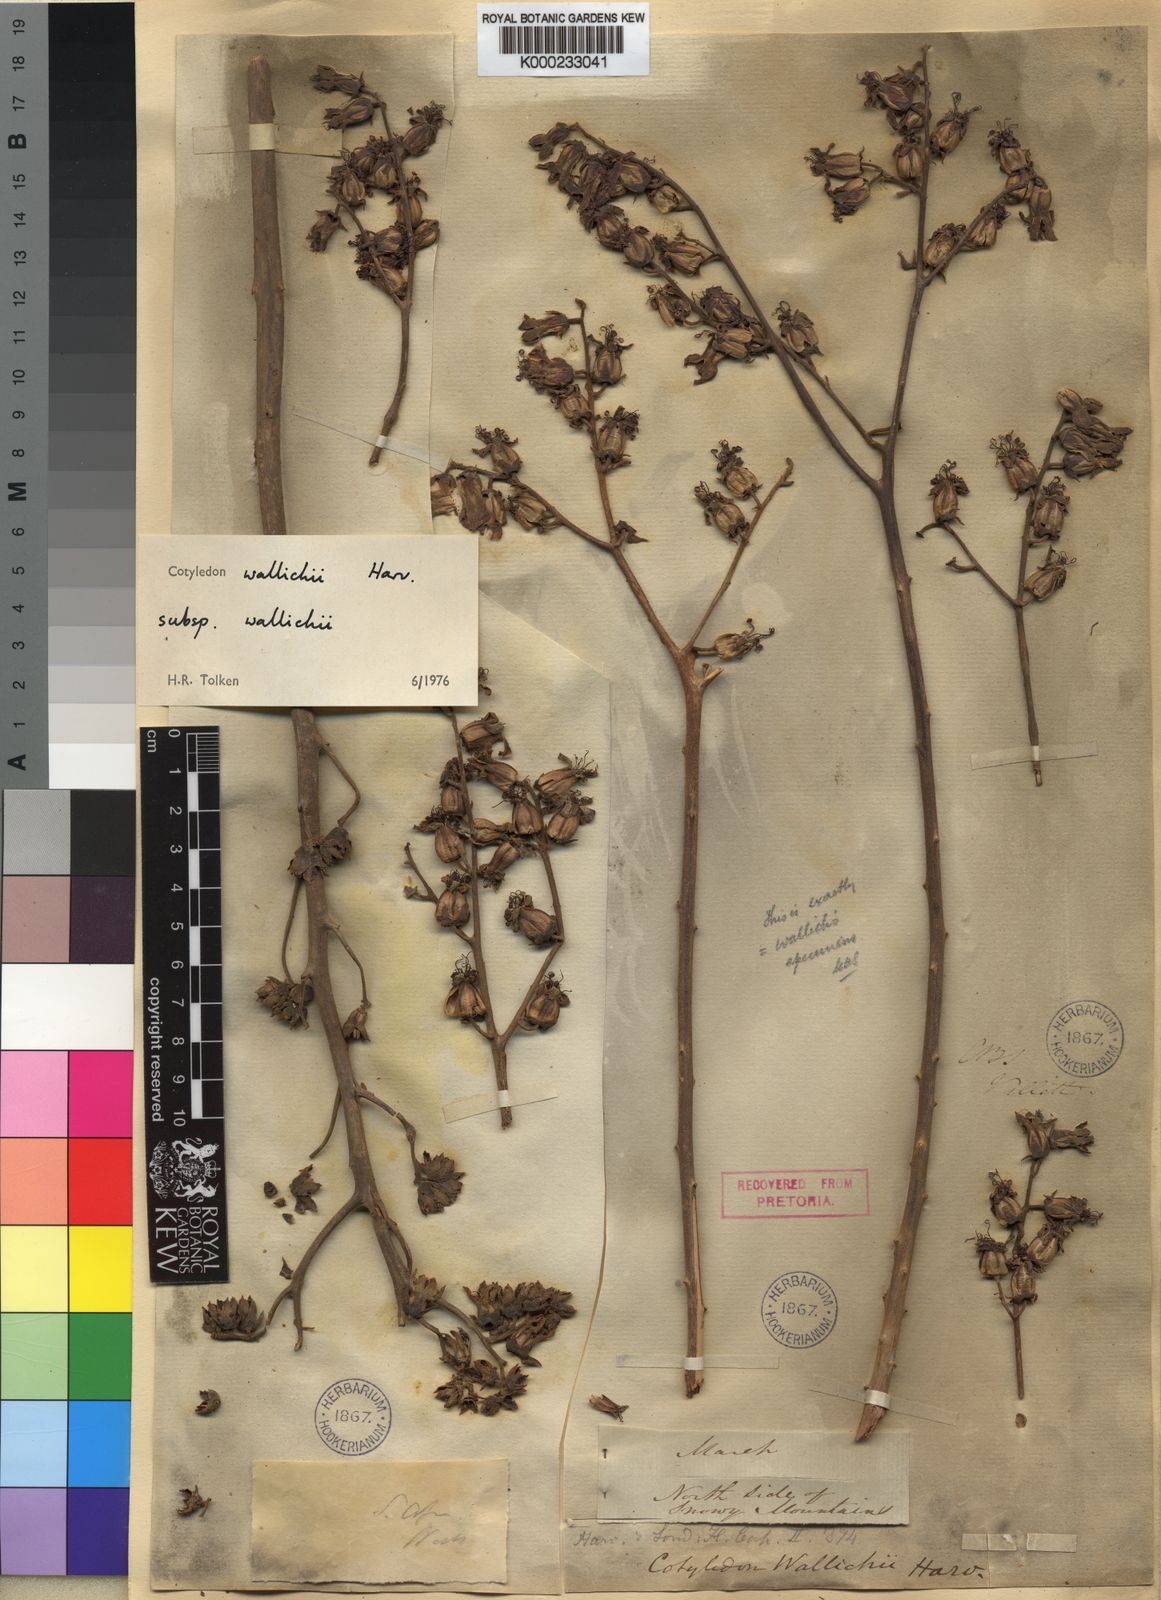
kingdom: Plantae
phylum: Tracheophyta
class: Magnoliopsida
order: Saxifragales
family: Crassulaceae
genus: Tylecodon
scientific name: Tylecodon wallichii
